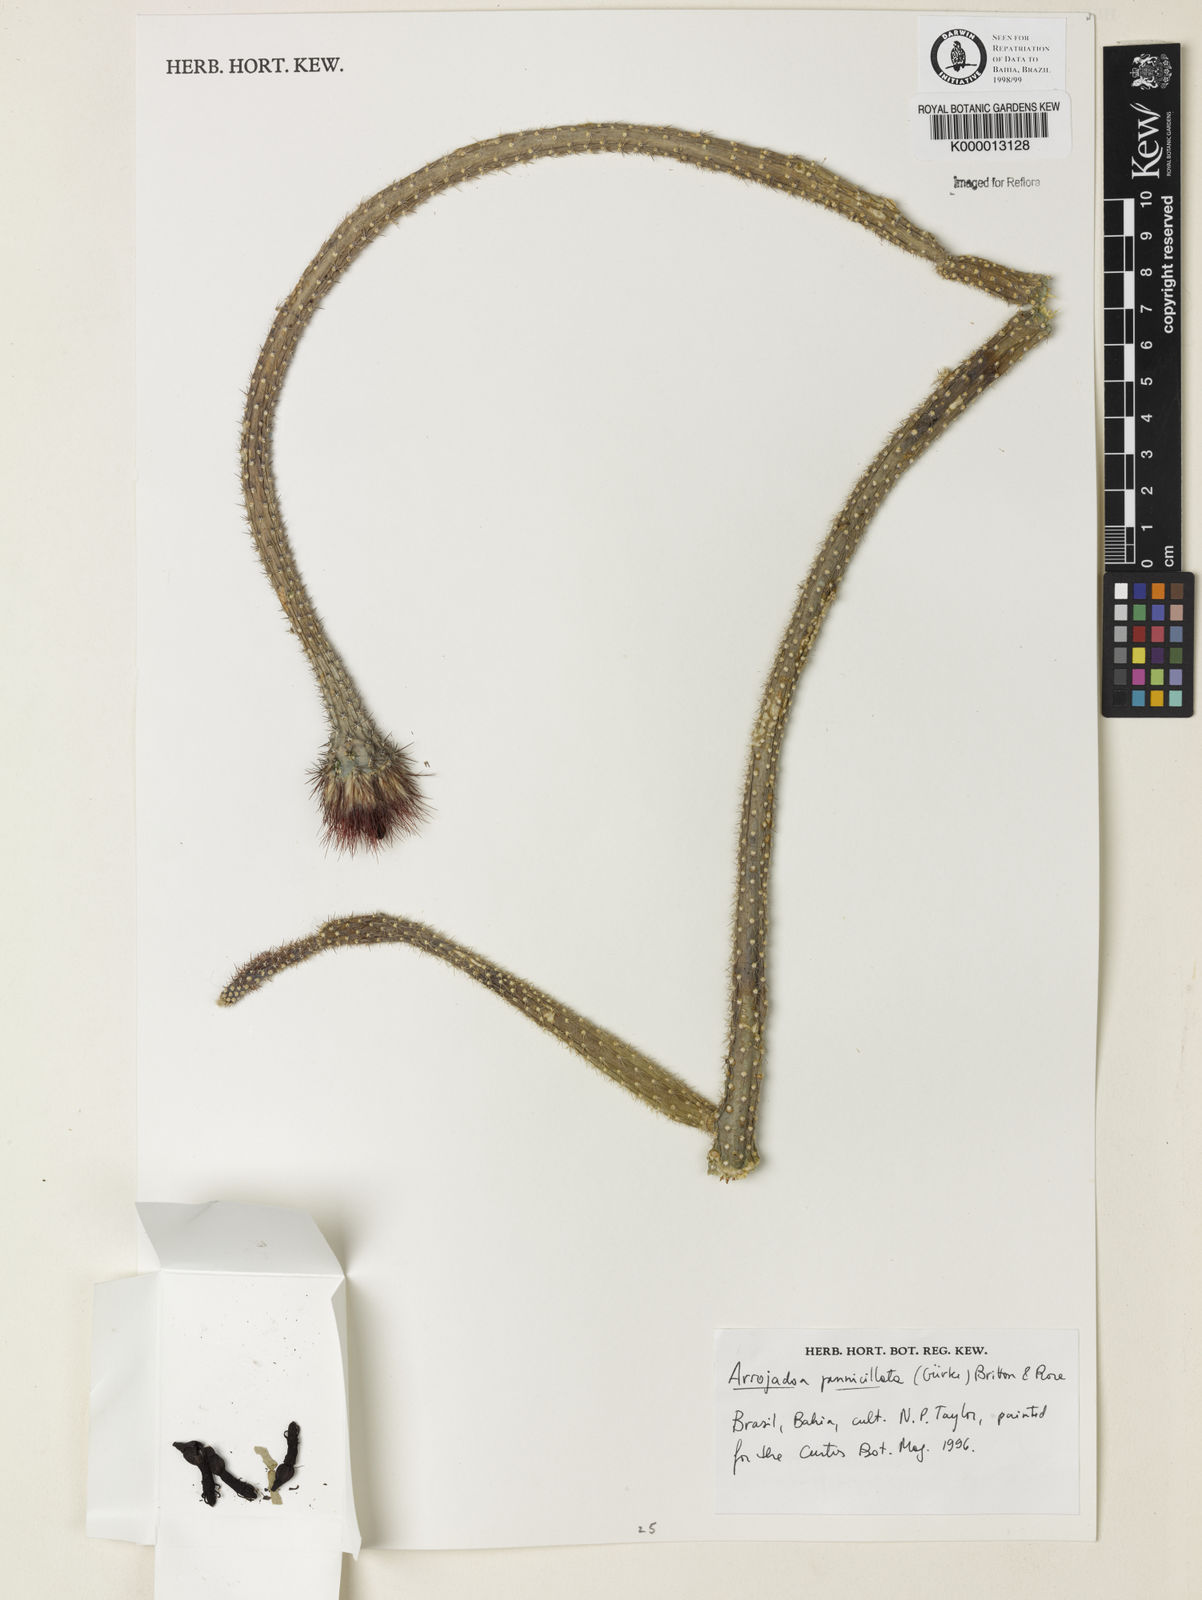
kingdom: Plantae
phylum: Tracheophyta
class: Magnoliopsida
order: Caryophyllales
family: Cactaceae
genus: Arrojadoa
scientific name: Arrojadoa penicillata
